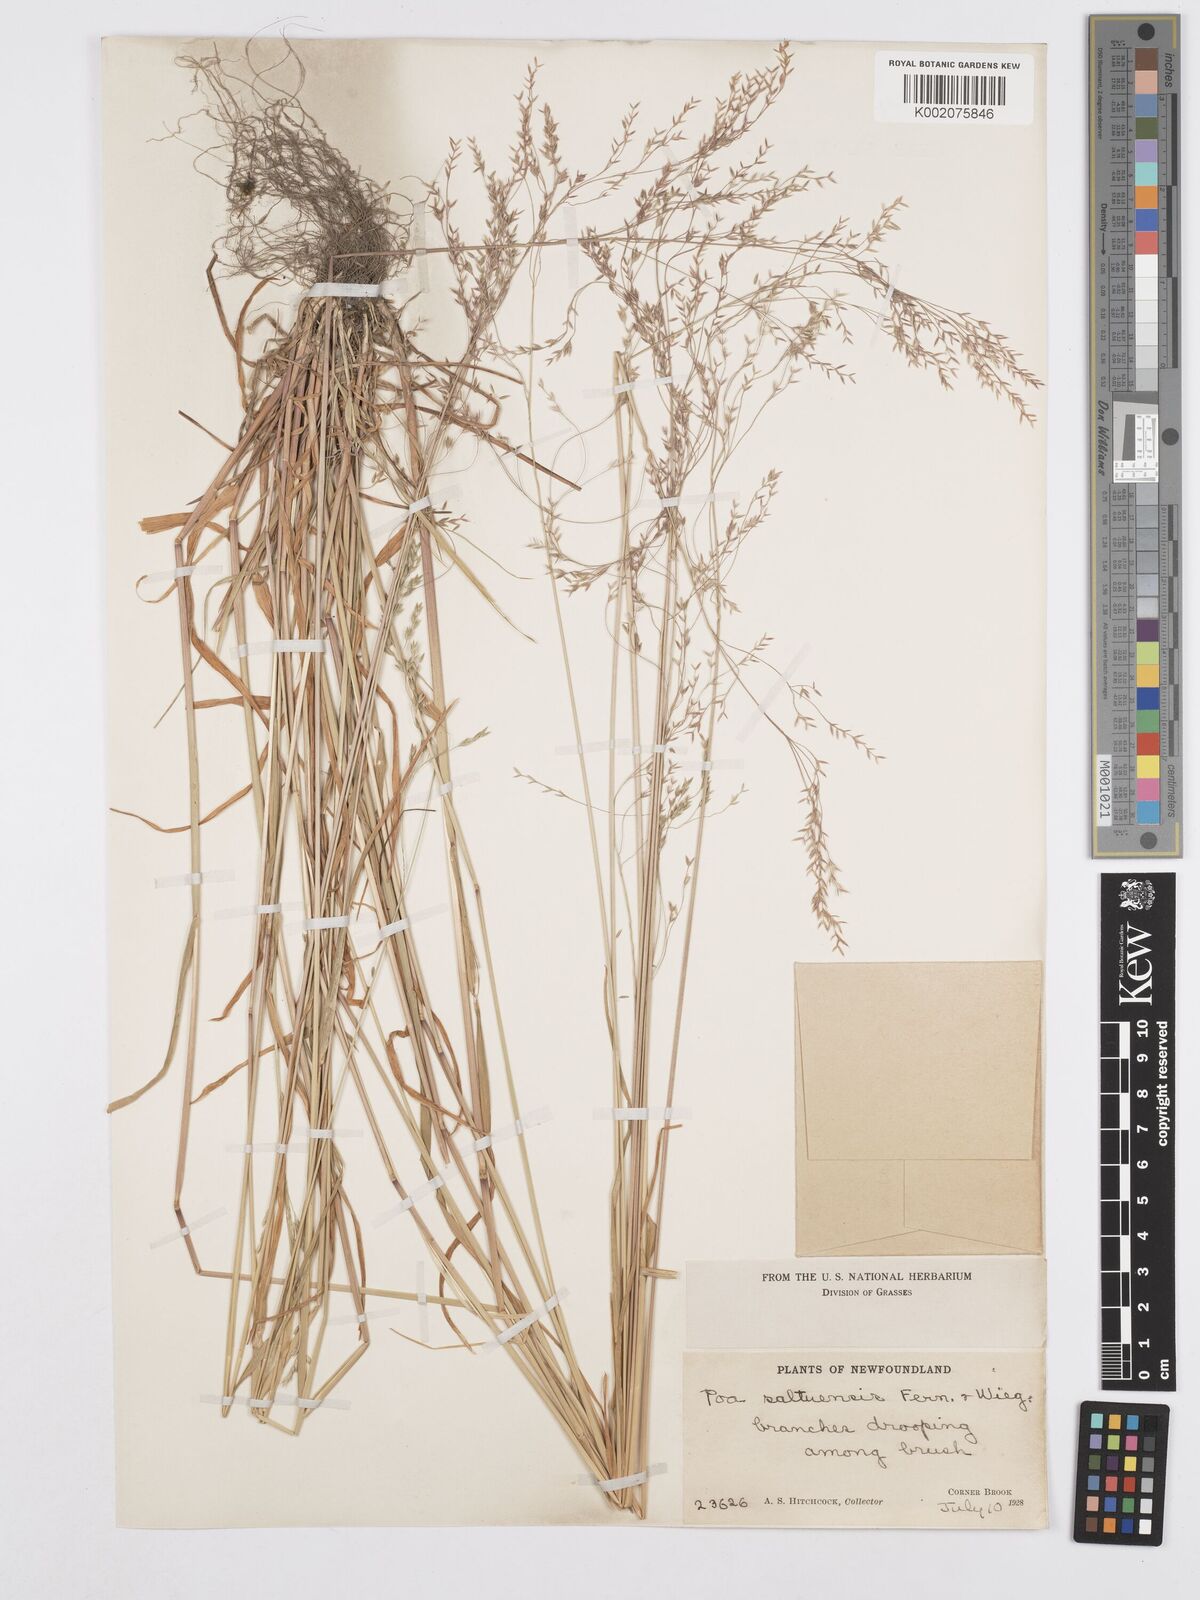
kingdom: Plantae
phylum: Tracheophyta
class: Liliopsida
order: Poales
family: Poaceae
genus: Poa
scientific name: Poa saltuensis
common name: Bushy pasture speargrass
